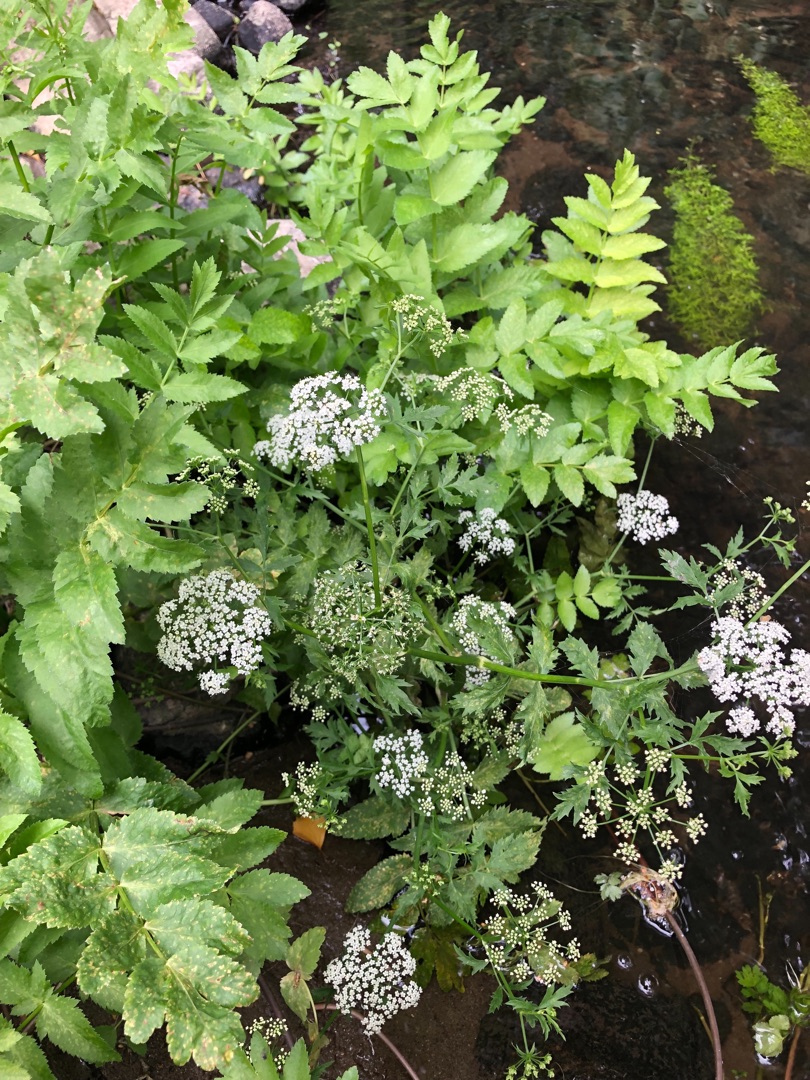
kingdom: Plantae
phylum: Tracheophyta
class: Magnoliopsida
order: Apiales
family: Apiaceae
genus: Berula
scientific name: Berula erecta
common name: Sideskærm
